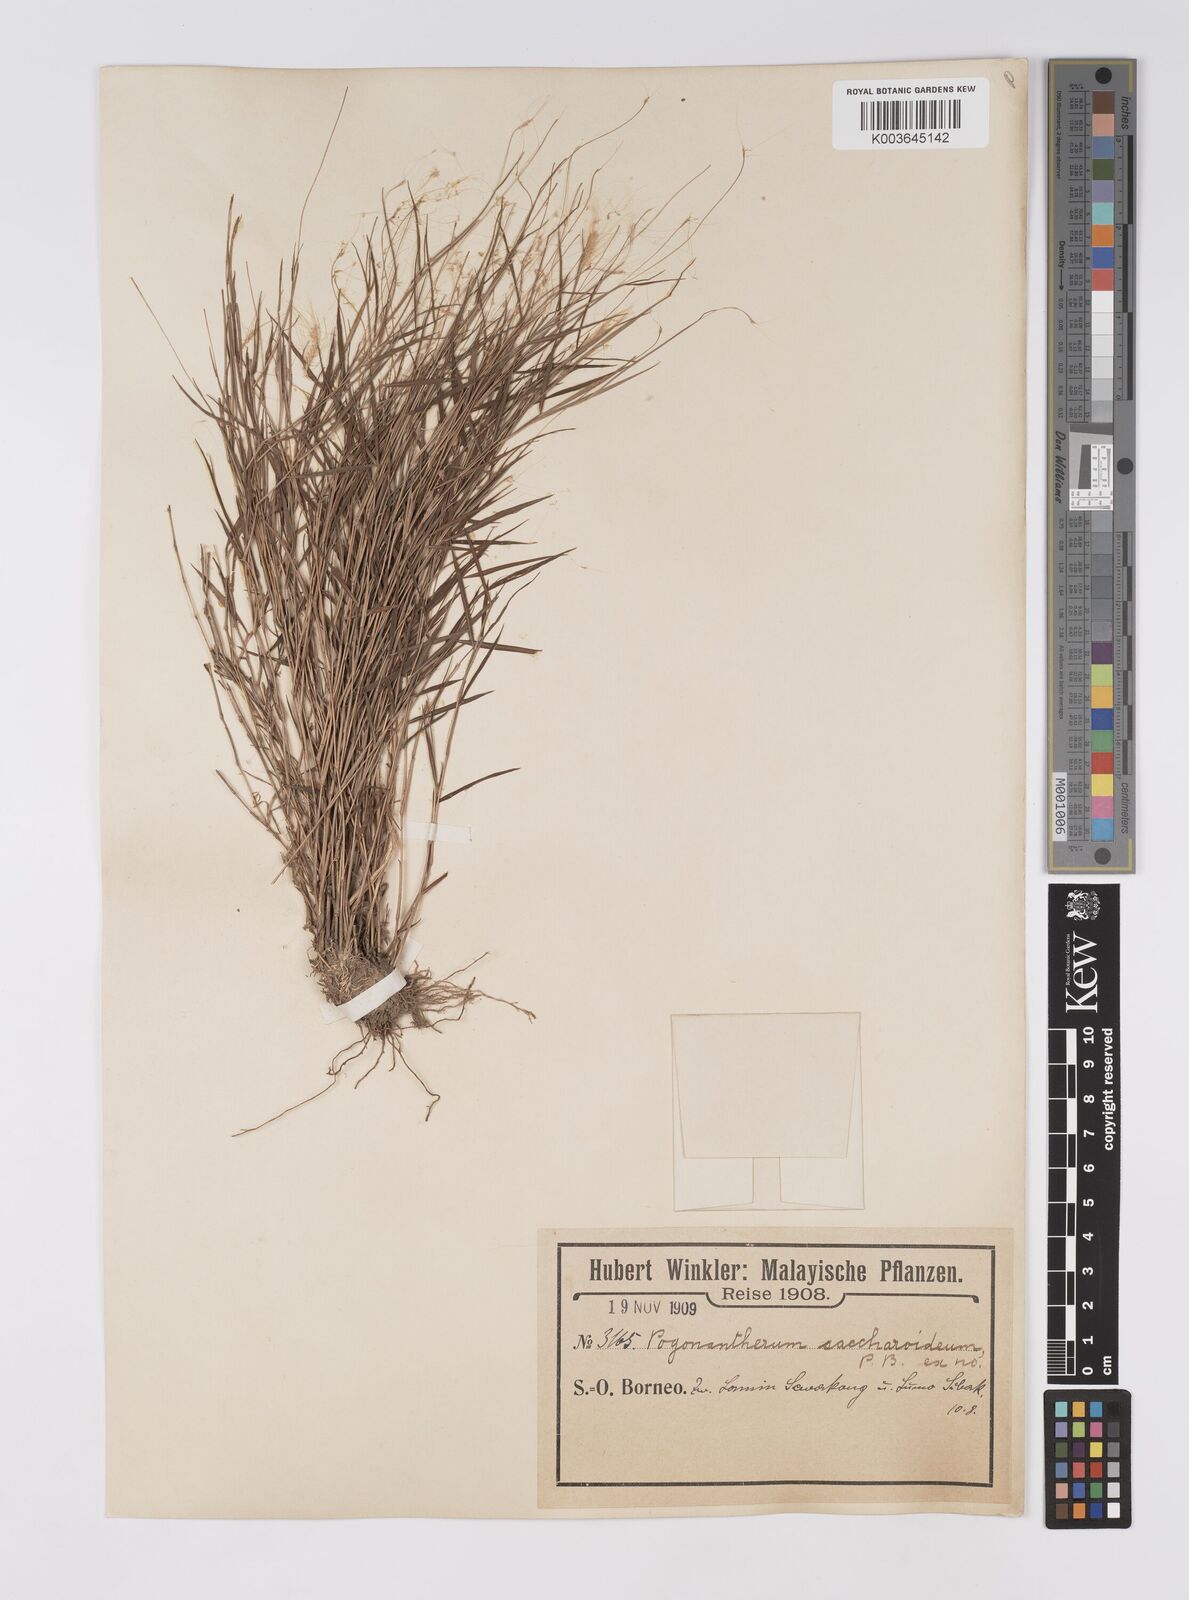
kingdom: Plantae
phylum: Tracheophyta
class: Liliopsida
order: Poales
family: Poaceae
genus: Pogonatherum
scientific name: Pogonatherum crinitum
